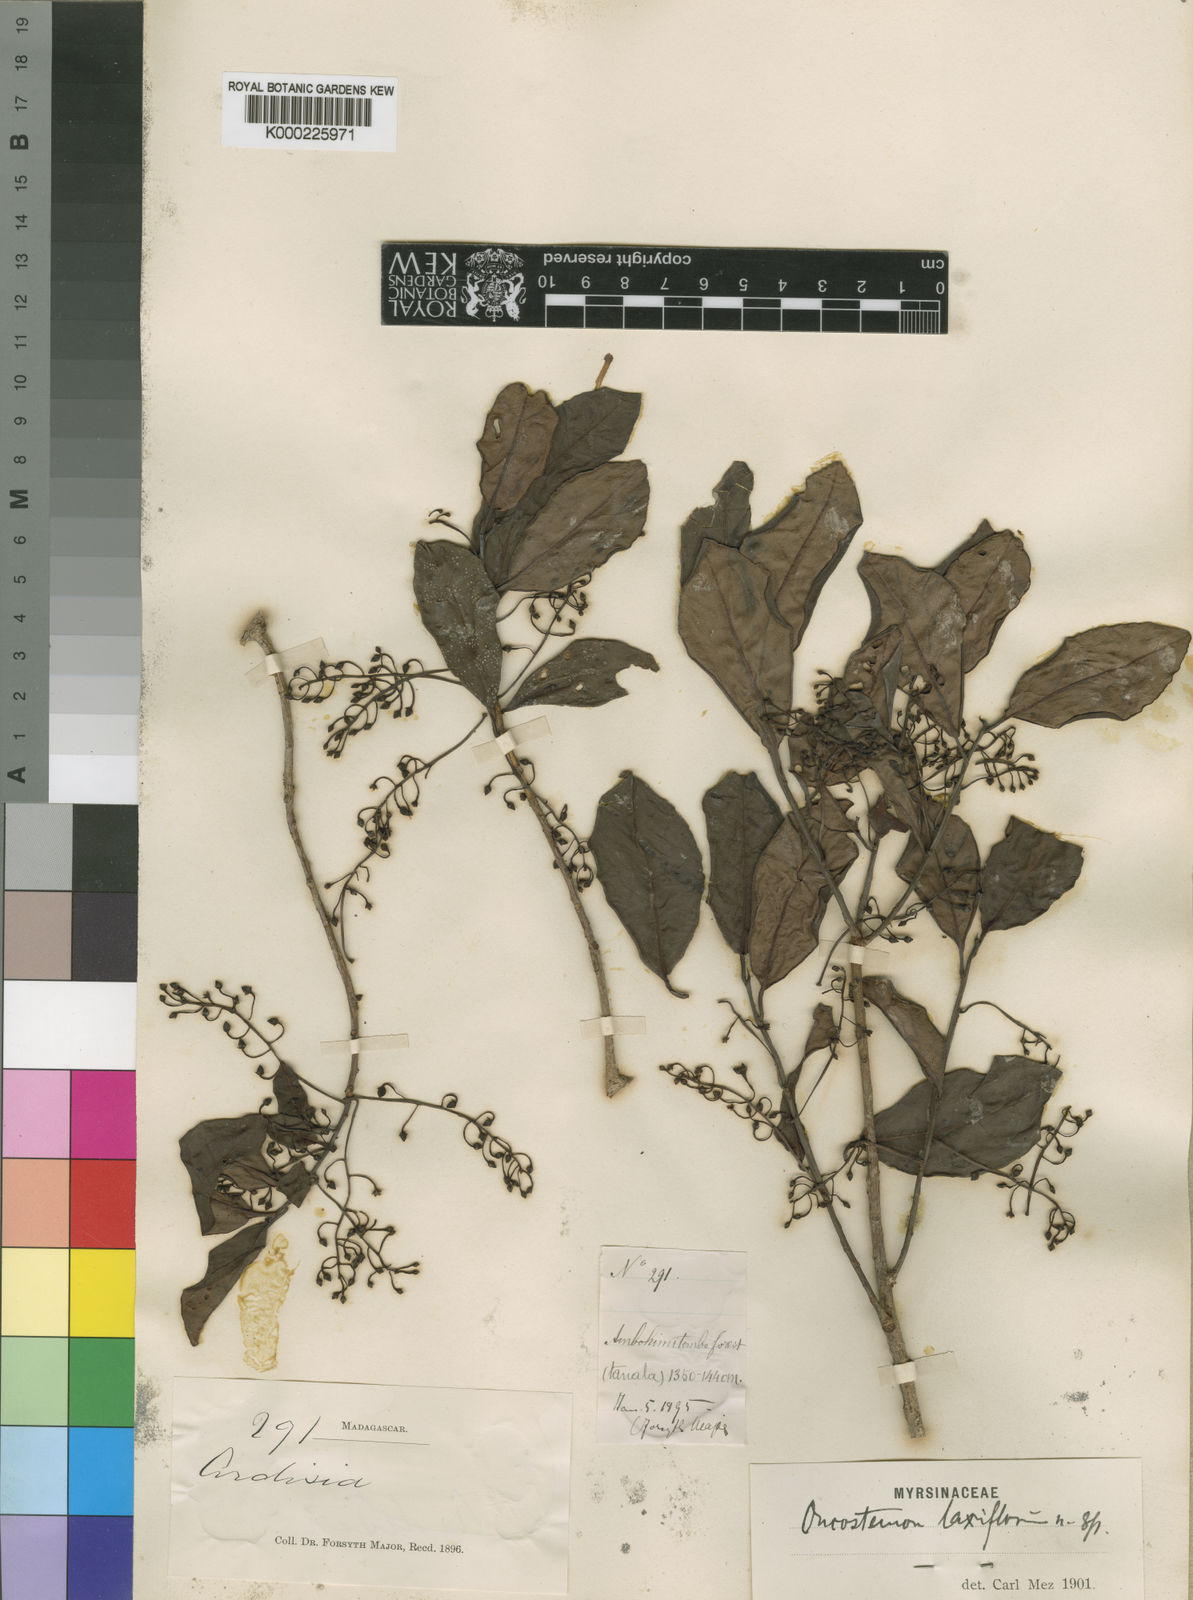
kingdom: Plantae
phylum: Tracheophyta
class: Magnoliopsida
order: Ericales
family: Primulaceae
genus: Oncostemum
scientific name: Oncostemum laxiflorum
